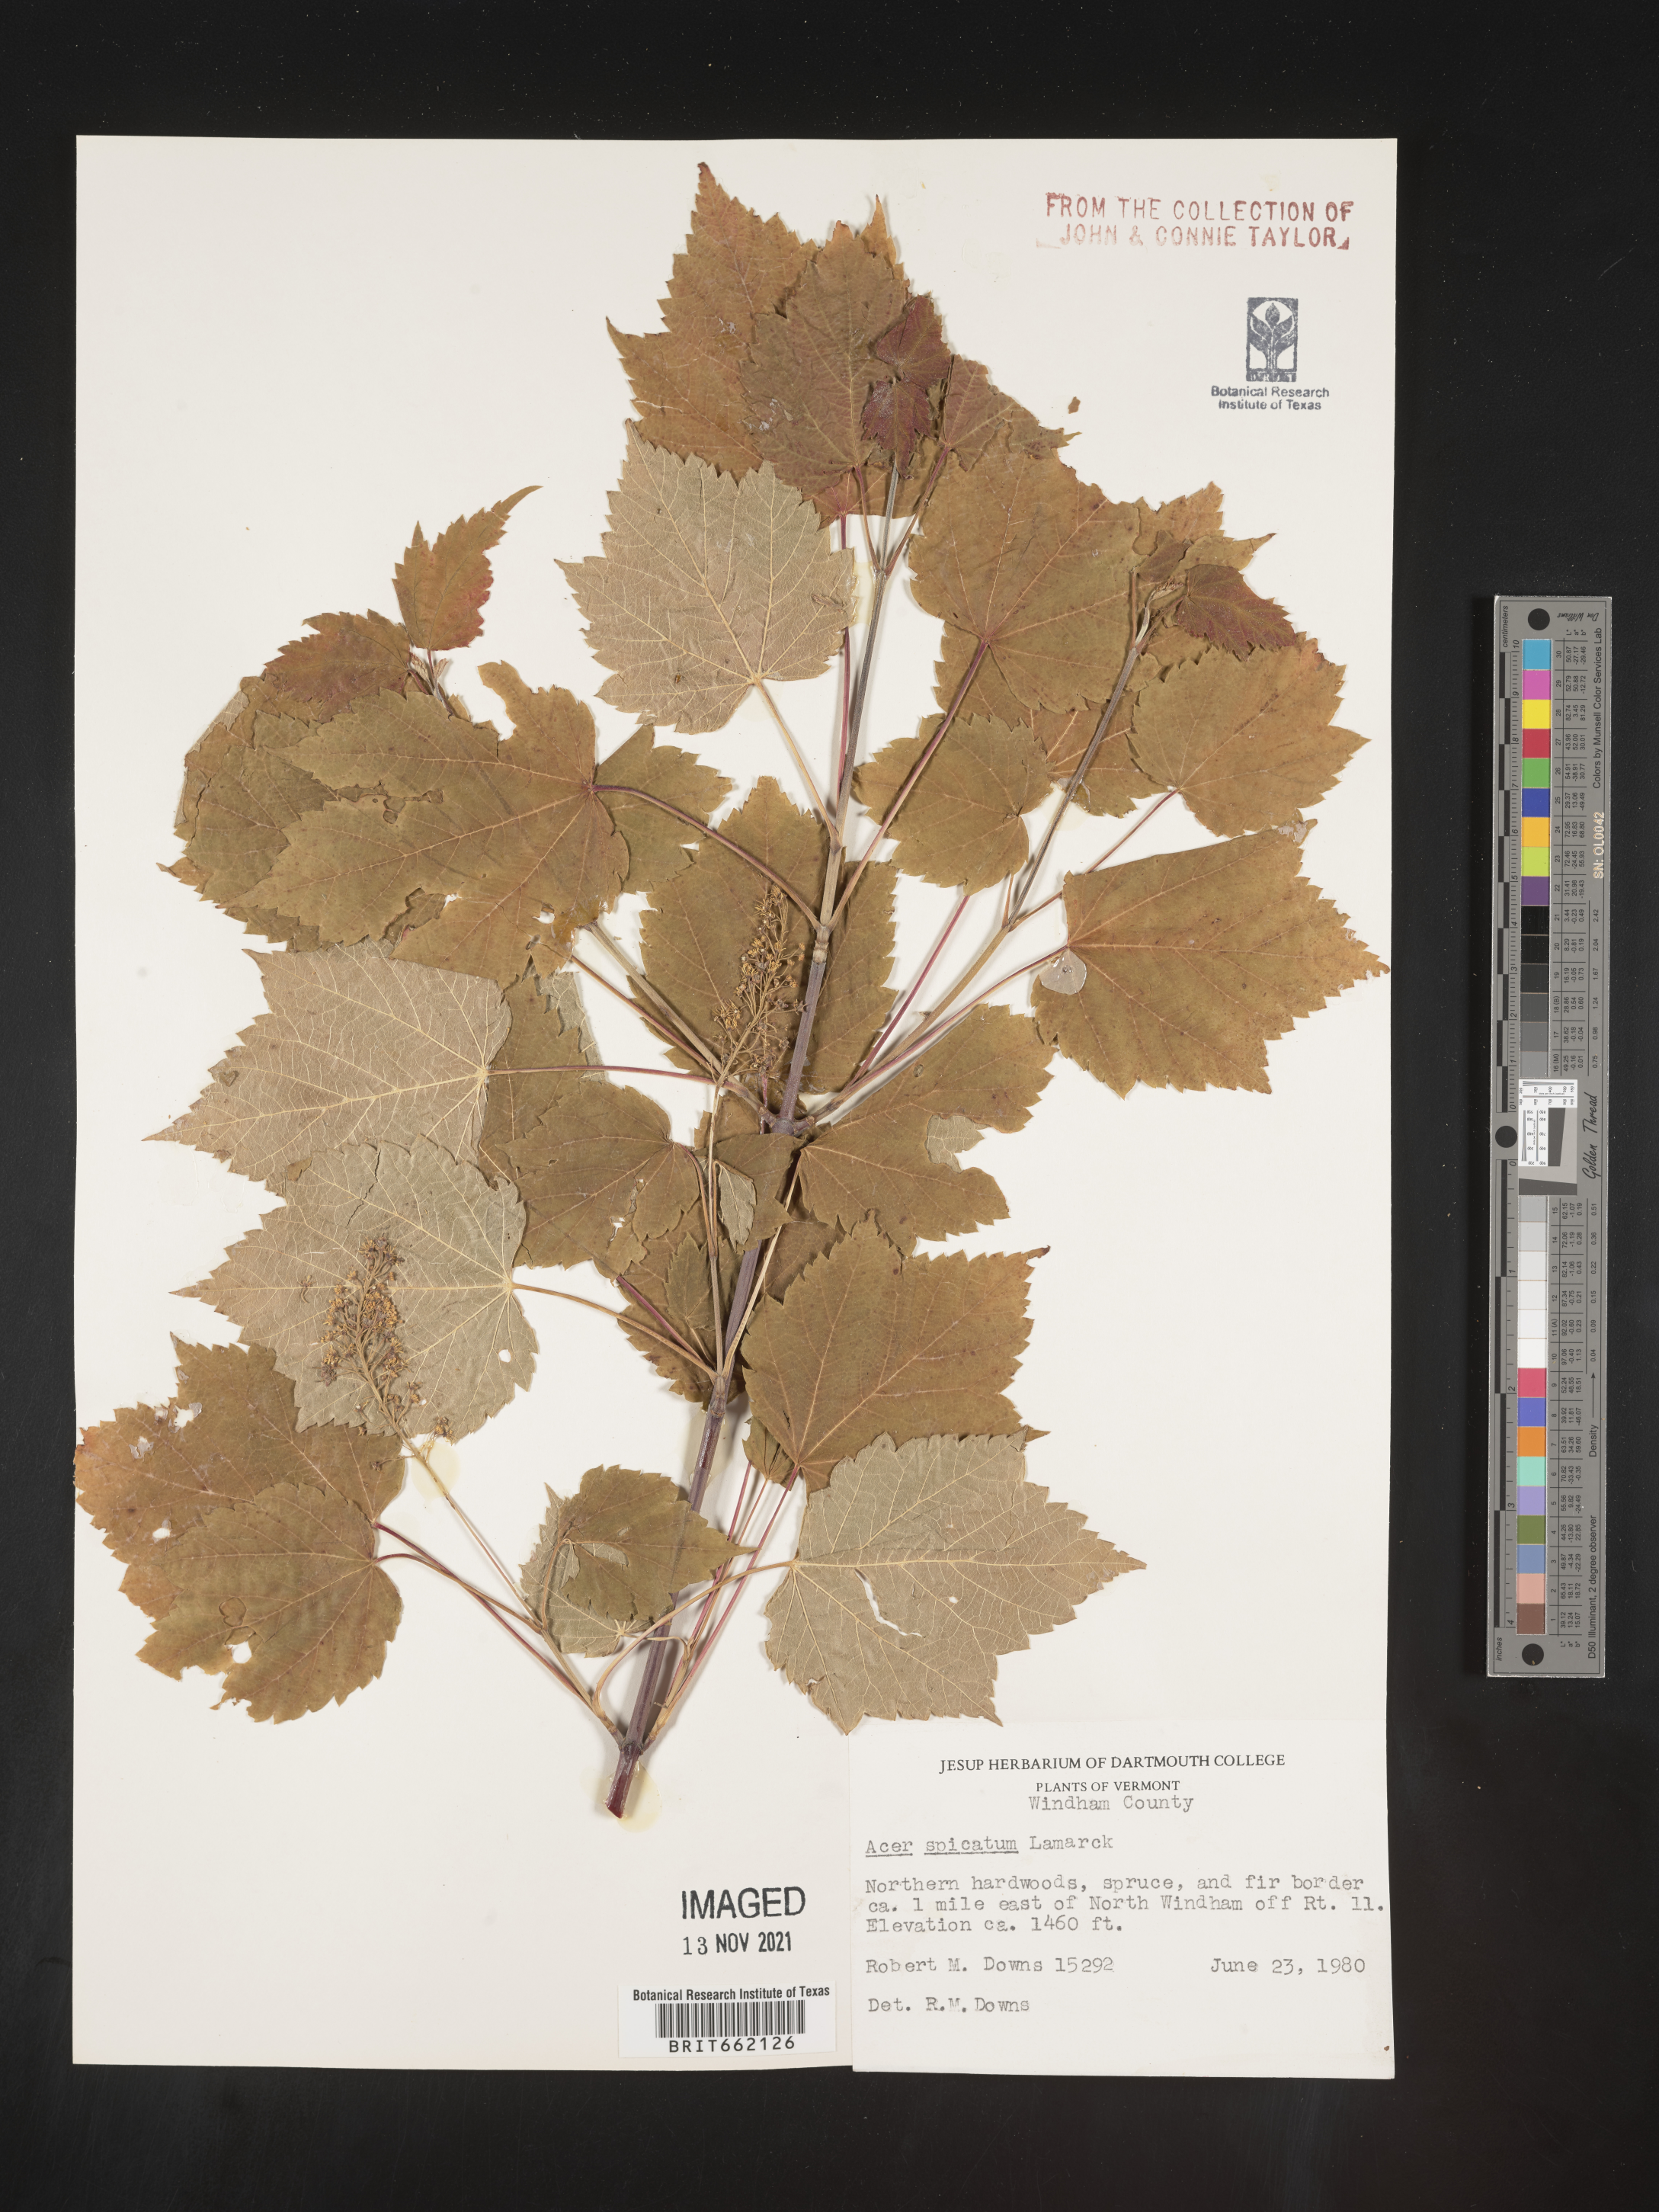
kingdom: Plantae
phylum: Tracheophyta
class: Magnoliopsida
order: Sapindales
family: Sapindaceae
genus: Acer
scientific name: Acer spicatum
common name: Mountain maple
